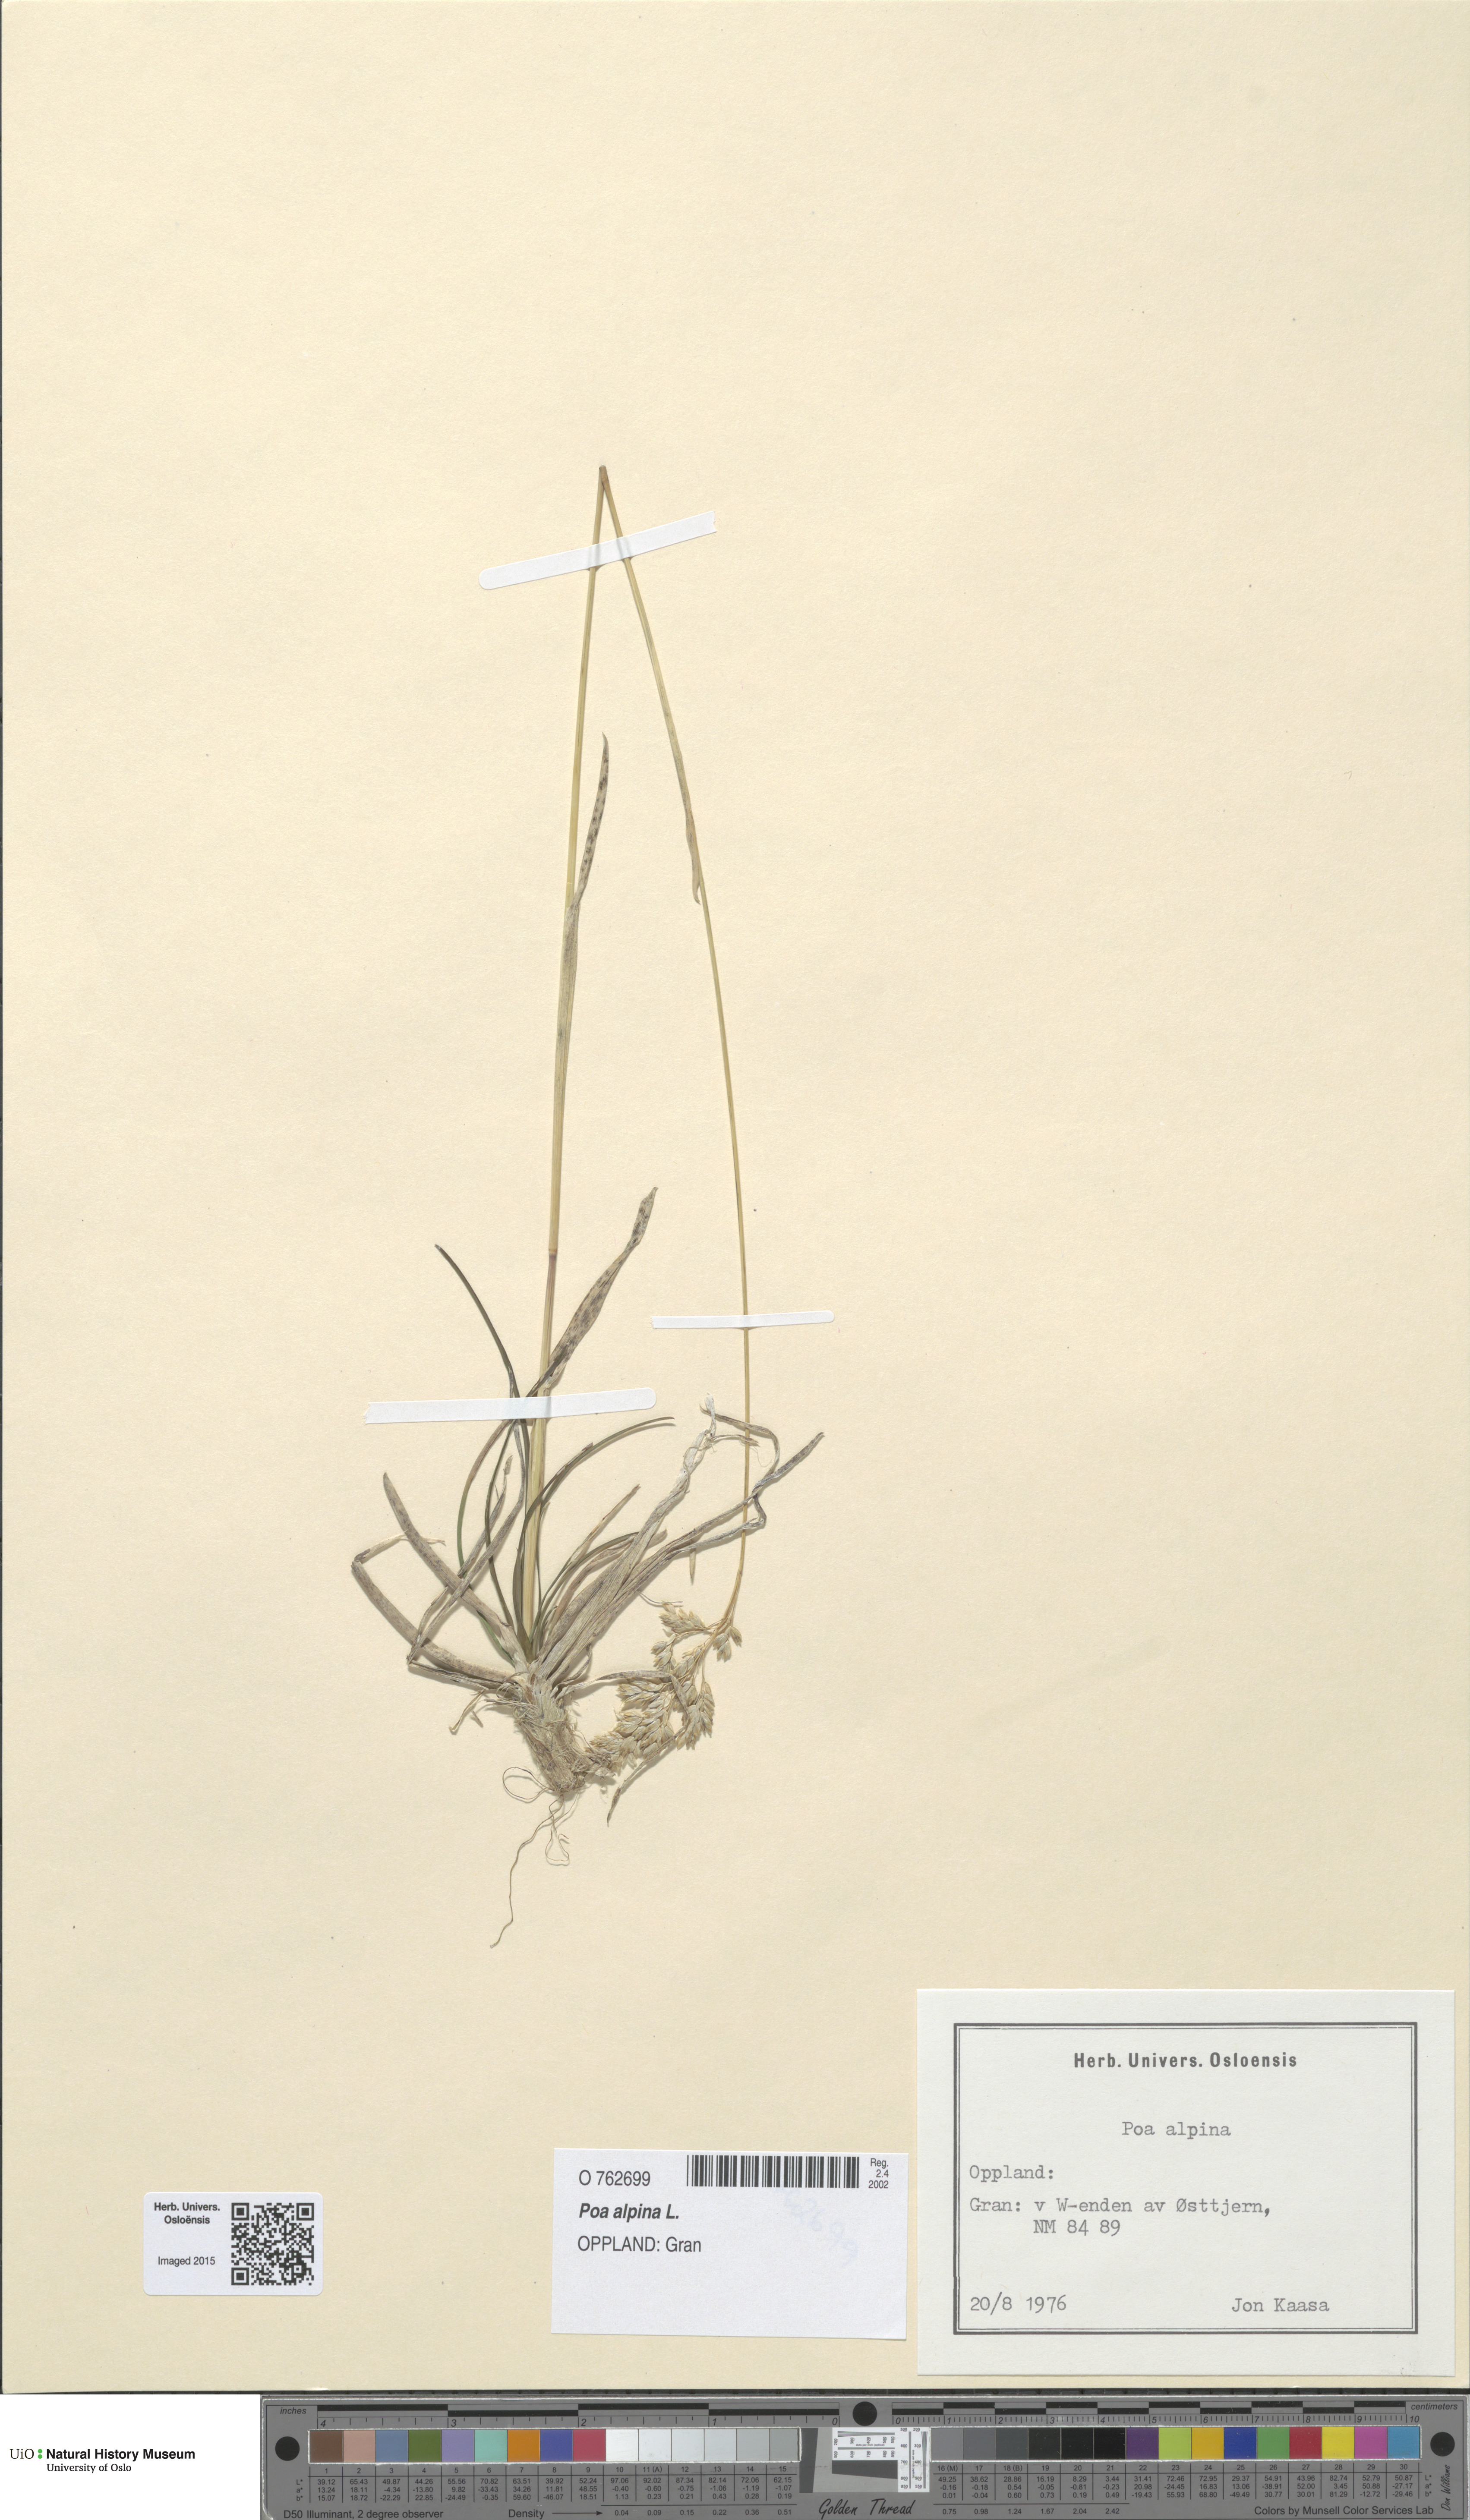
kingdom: Plantae
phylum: Tracheophyta
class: Liliopsida
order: Poales
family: Poaceae
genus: Poa
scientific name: Poa alpina
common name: Alpine bluegrass
